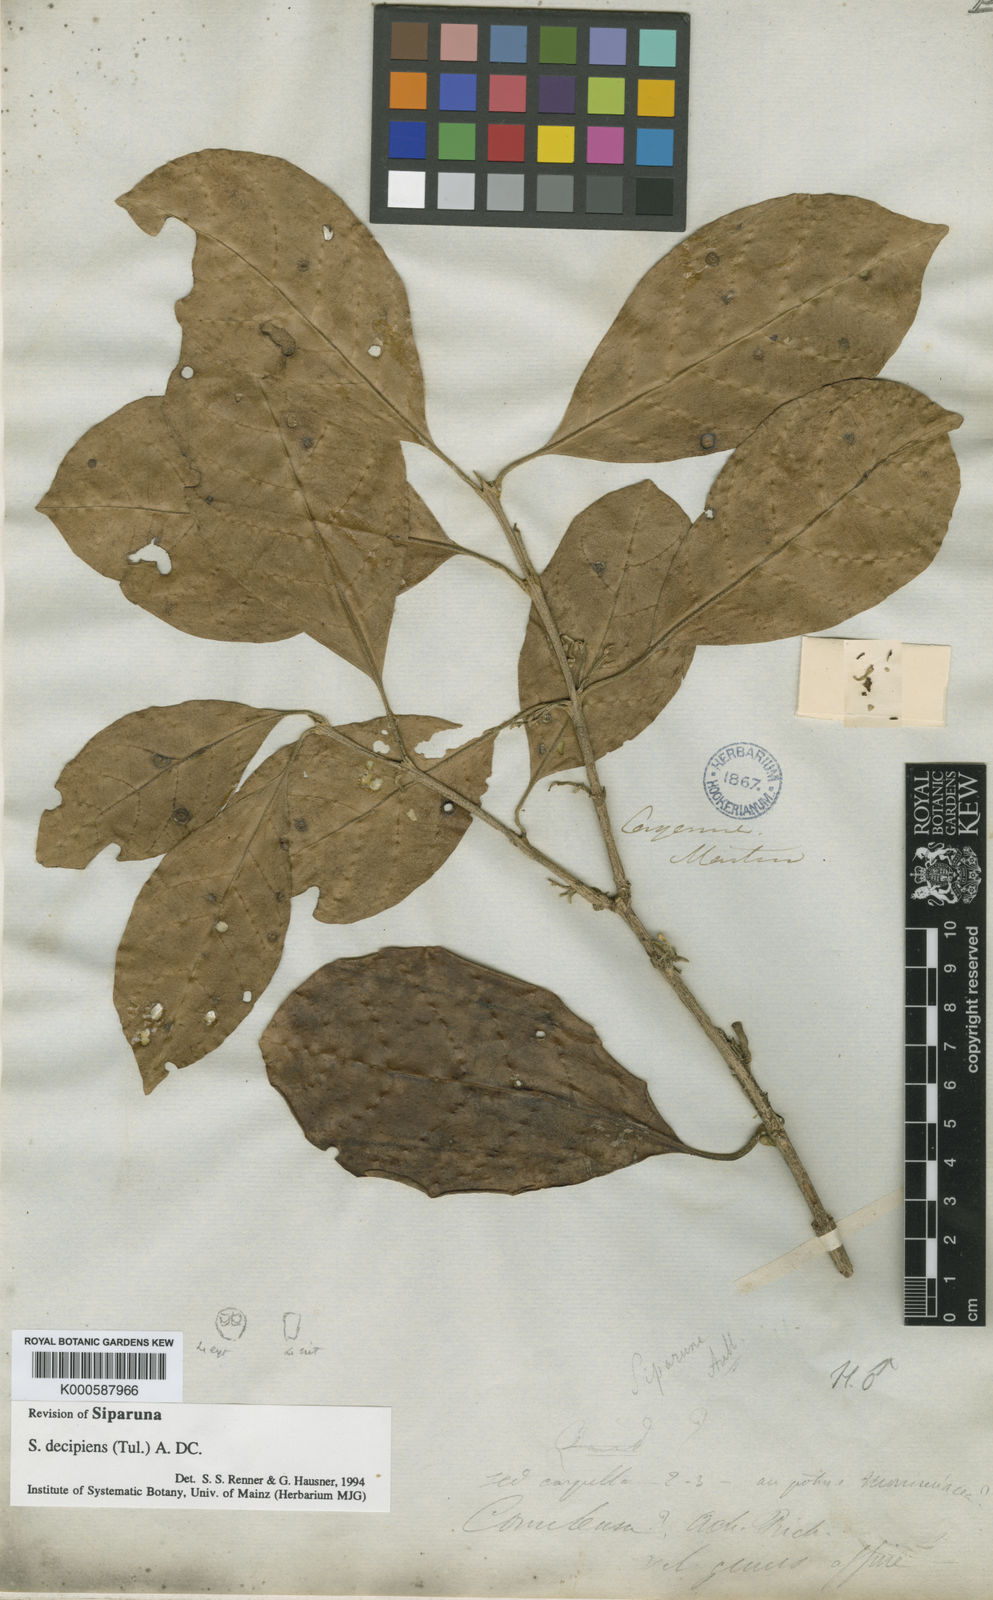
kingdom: Plantae
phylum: Tracheophyta
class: Magnoliopsida
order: Laurales
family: Siparunaceae
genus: Siparuna
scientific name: Siparuna decipiens
